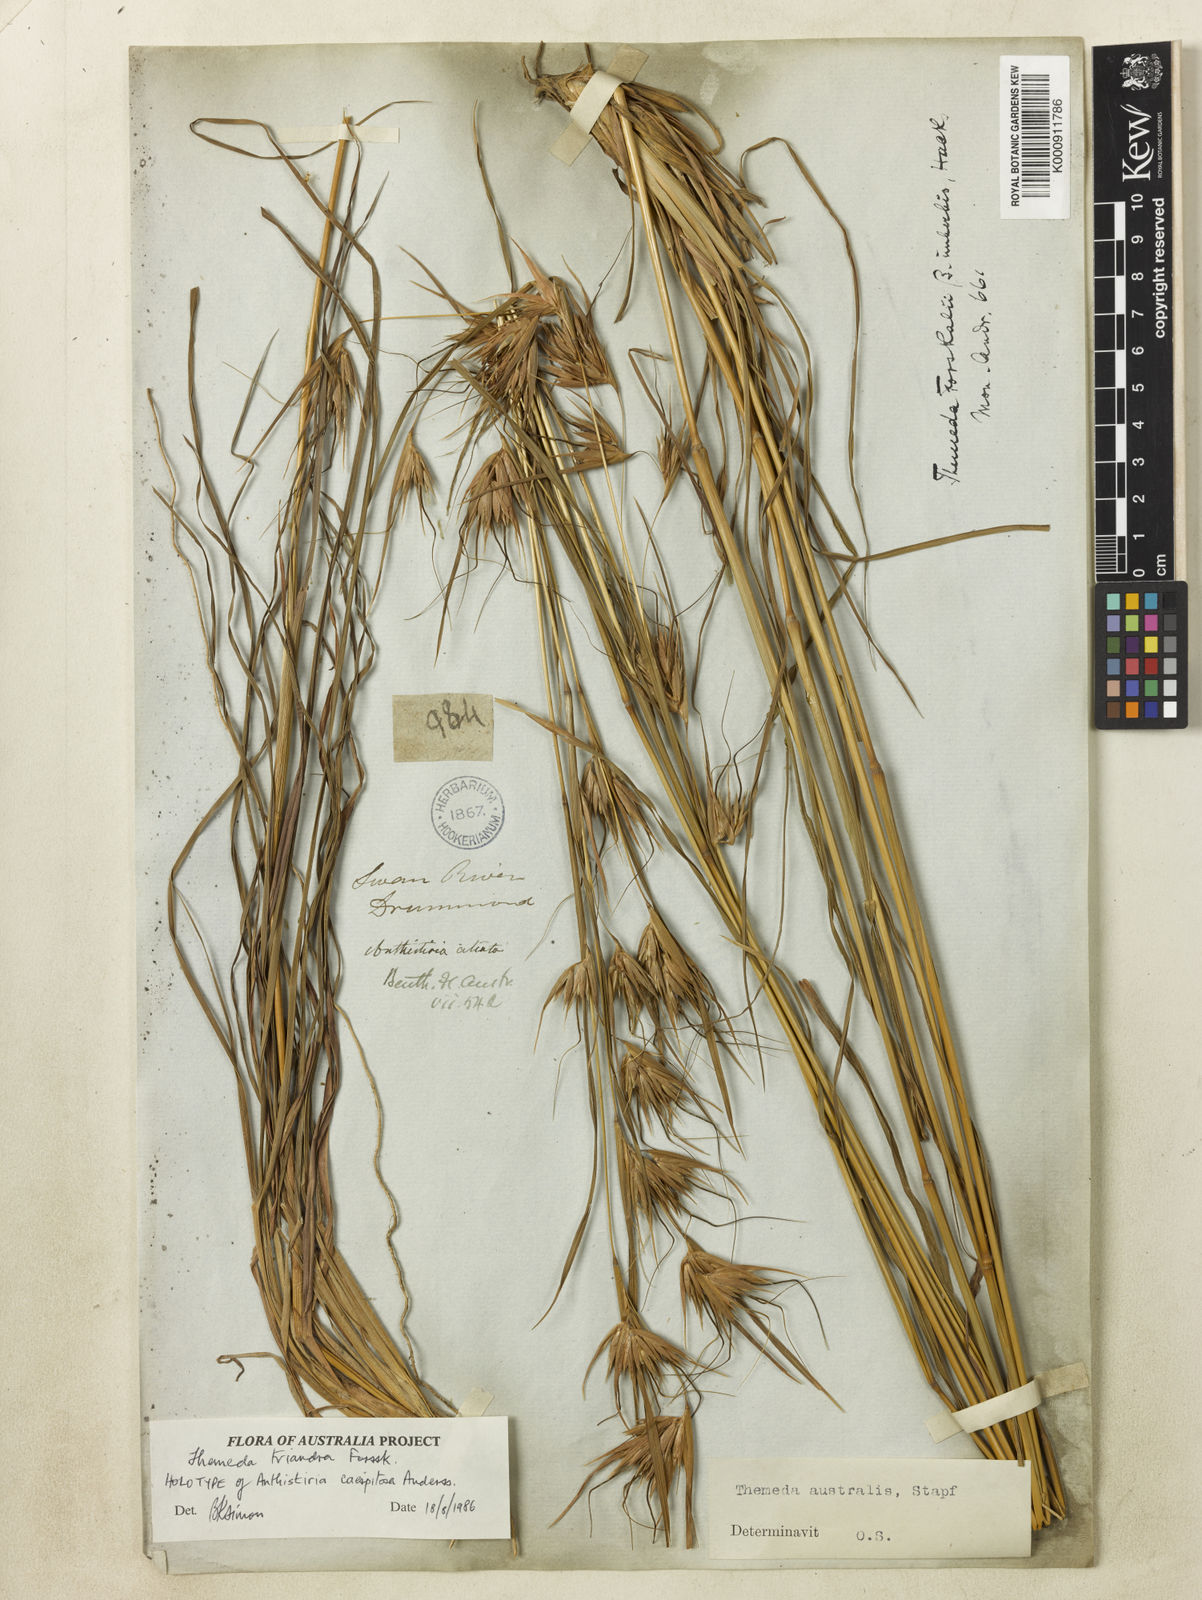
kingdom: Plantae
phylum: Tracheophyta
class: Liliopsida
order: Poales
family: Poaceae
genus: Themeda
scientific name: Themeda triandra
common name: Kangaroo grass
